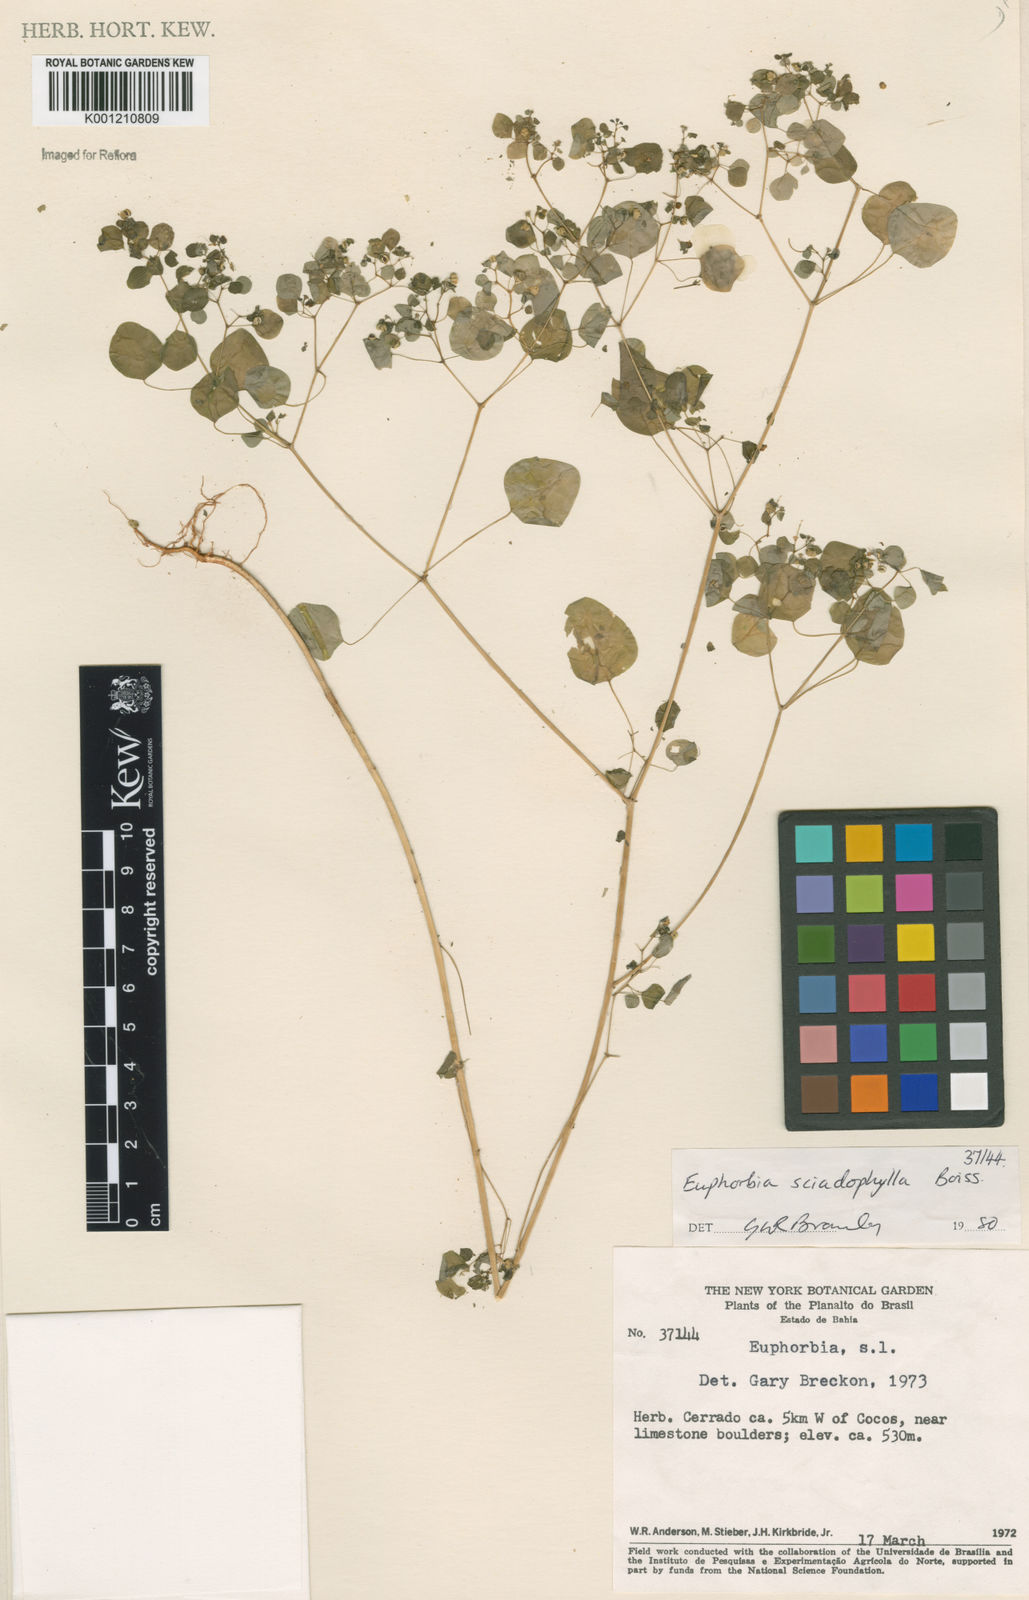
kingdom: Plantae
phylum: Tracheophyta
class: Magnoliopsida
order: Malpighiales
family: Euphorbiaceae
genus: Euphorbia
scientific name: Euphorbia sciadophila
